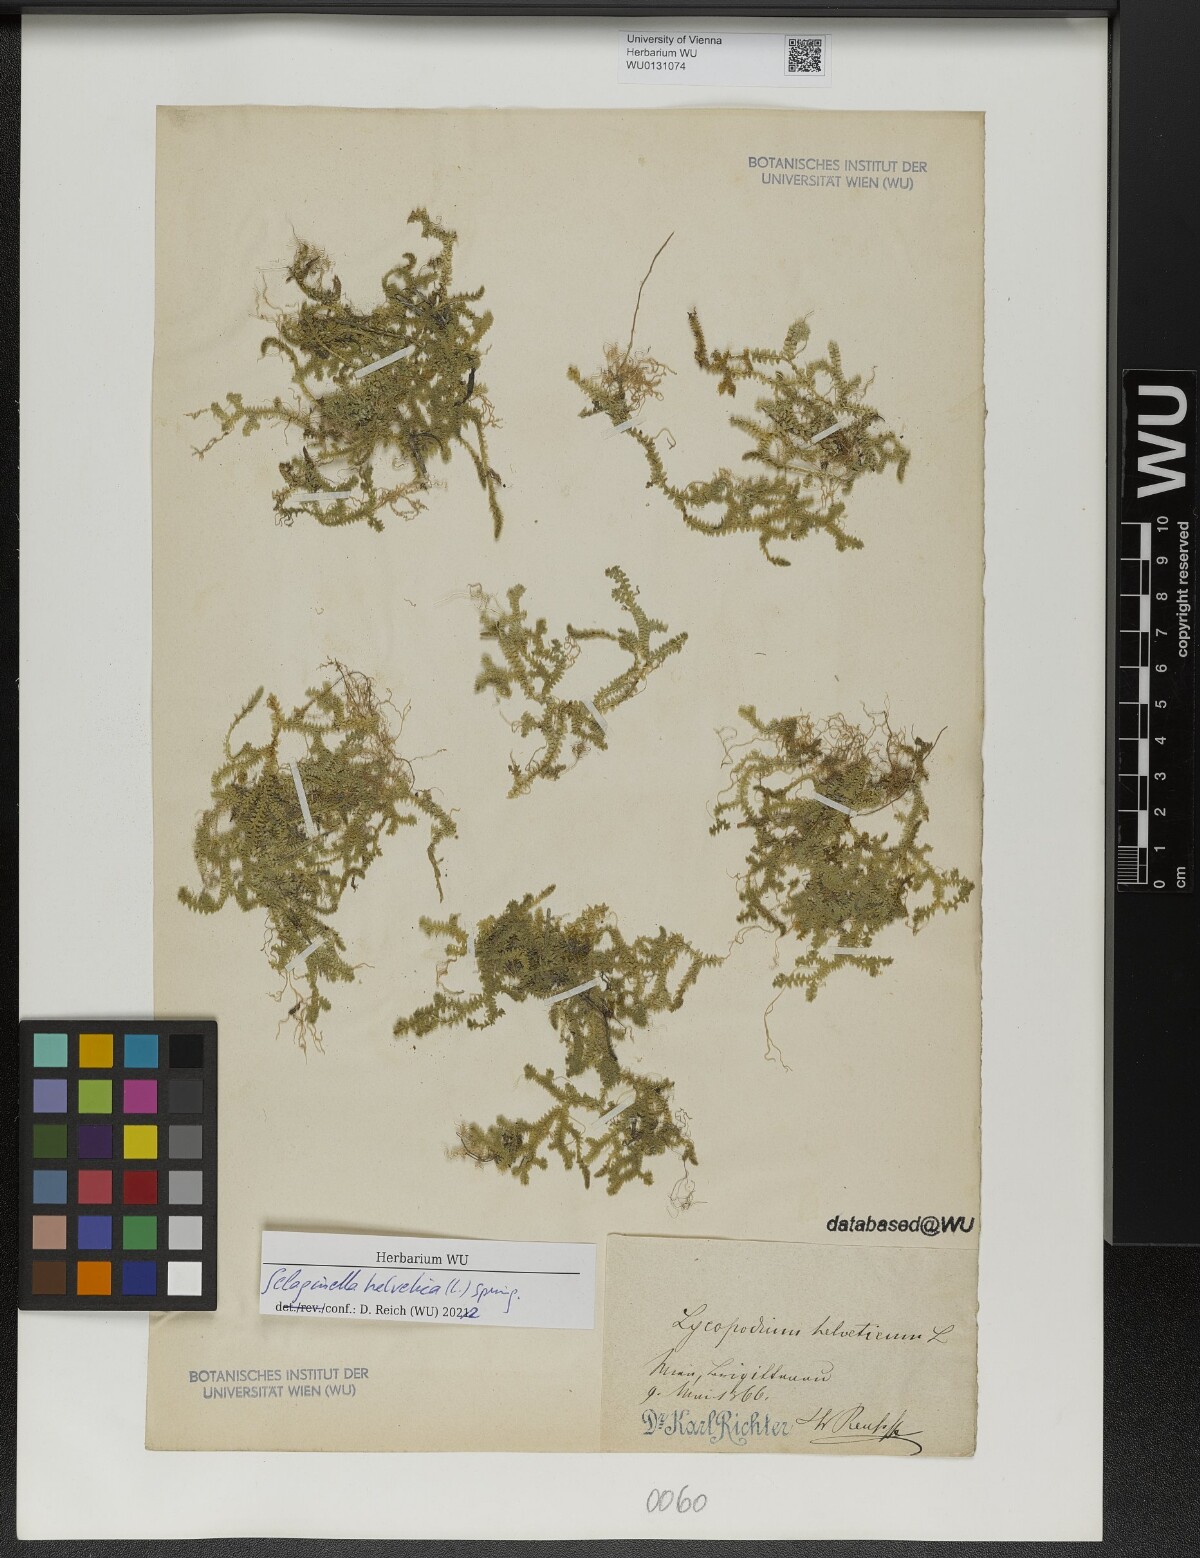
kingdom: Plantae
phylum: Tracheophyta
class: Lycopodiopsida
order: Selaginellales
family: Selaginellaceae
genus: Selaginella
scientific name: Selaginella helvetica
